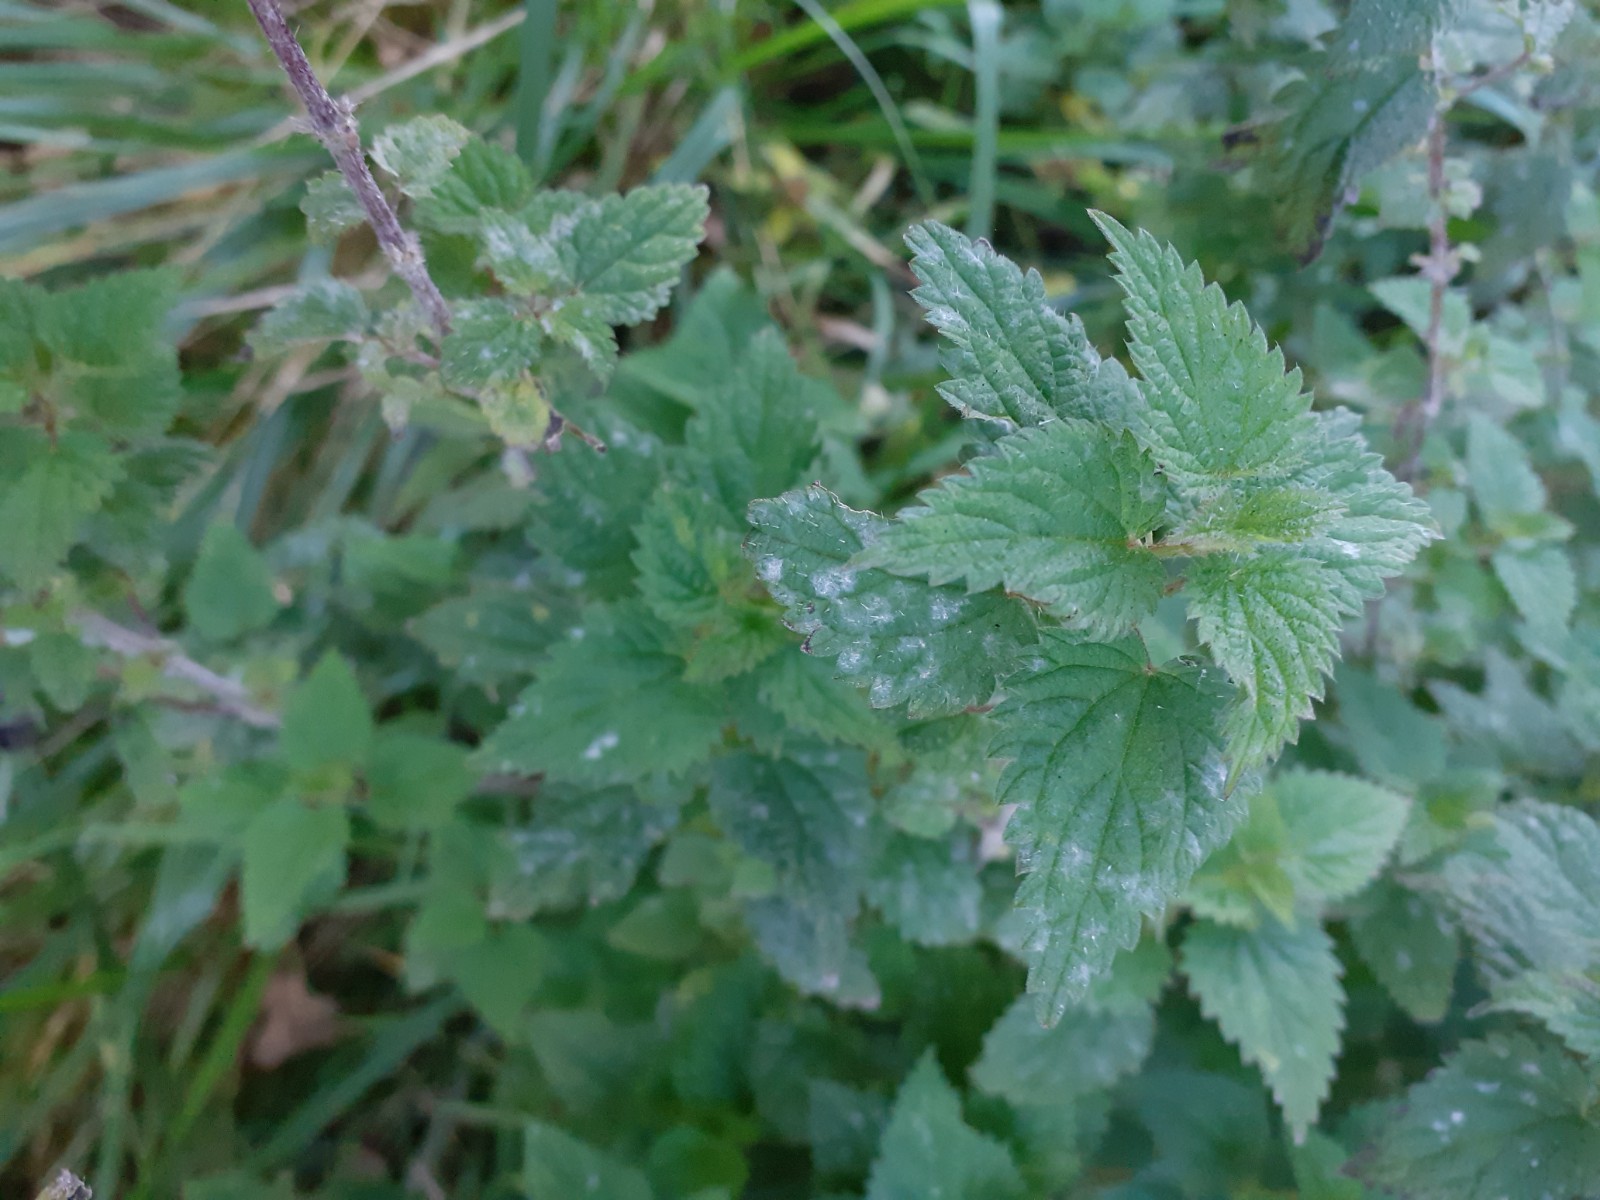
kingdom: Fungi
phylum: Ascomycota
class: Leotiomycetes
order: Helotiales
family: Erysiphaceae
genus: Erysiphe
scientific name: Erysiphe urticae
